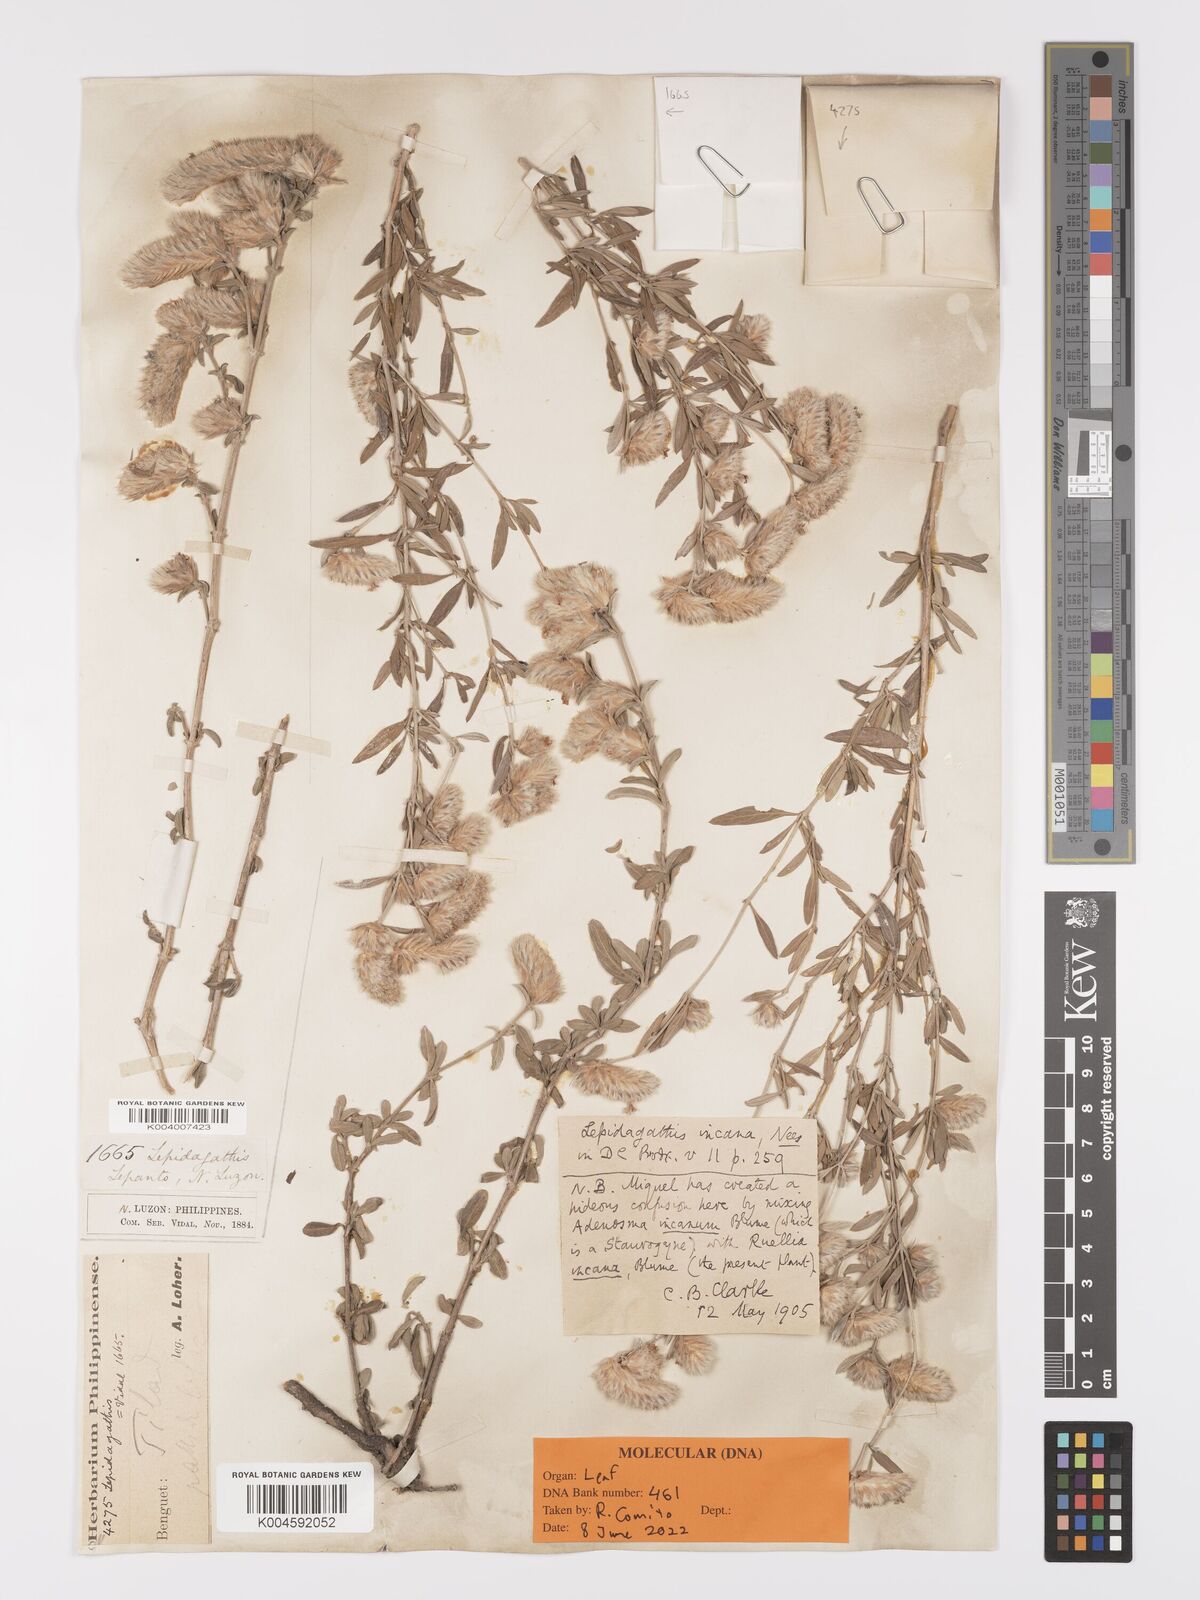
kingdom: Plantae
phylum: Tracheophyta
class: Magnoliopsida
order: Lamiales
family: Acanthaceae
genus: Lepidagathis
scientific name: Lepidagathis cinerea
